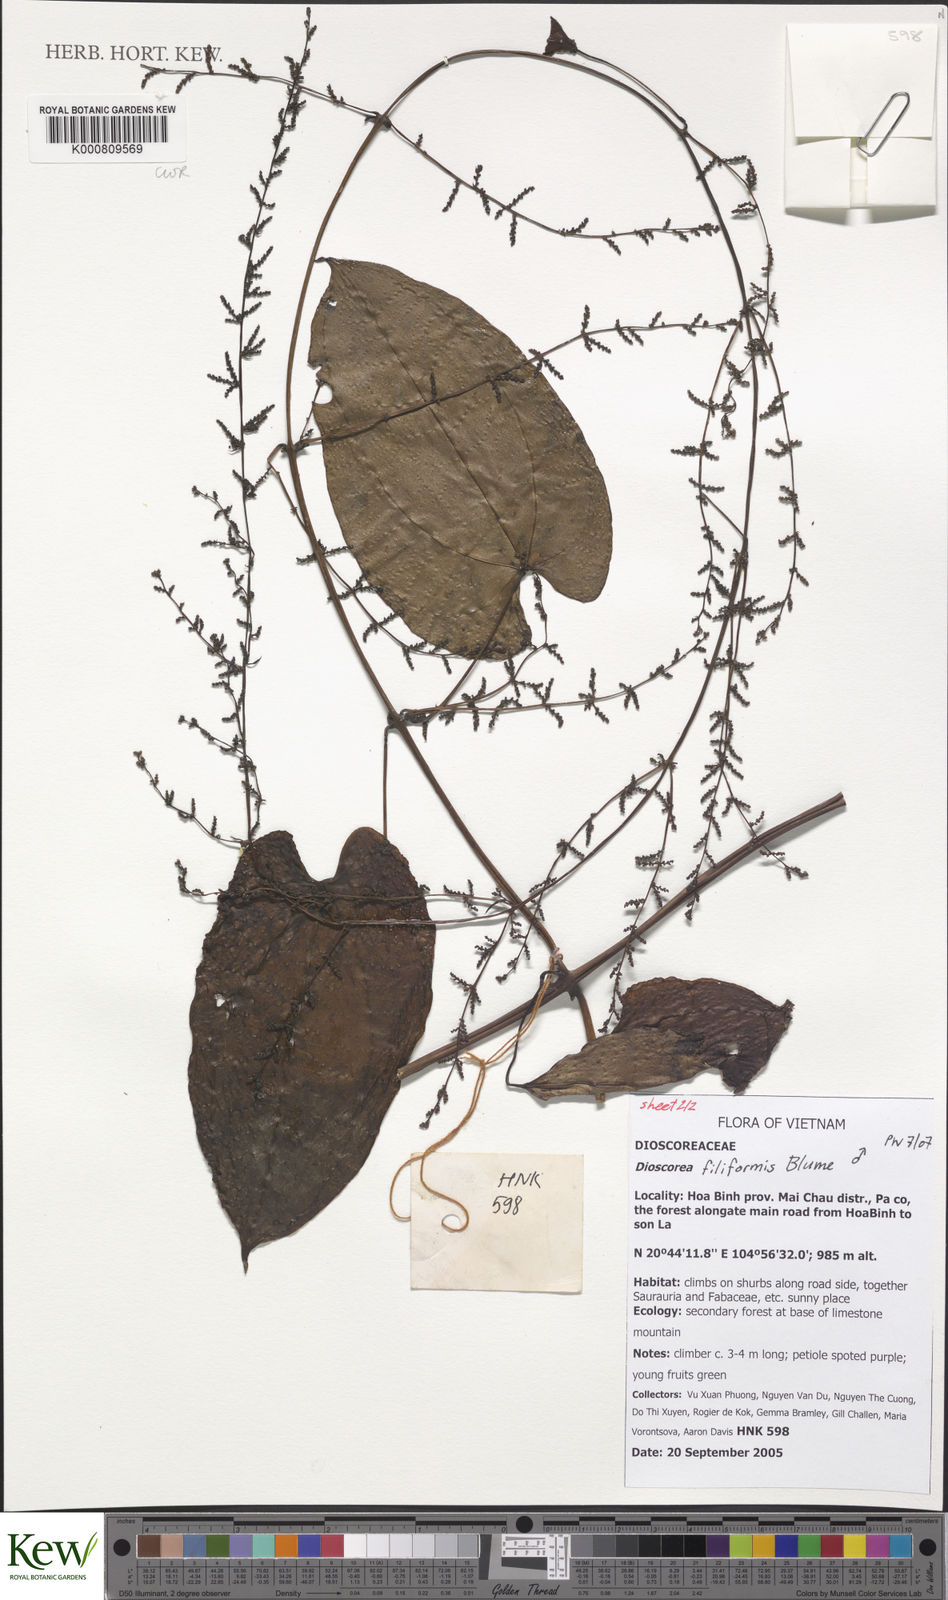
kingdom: Plantae
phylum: Tracheophyta
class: Liliopsida
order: Dioscoreales
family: Dioscoreaceae
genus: Dioscorea
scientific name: Dioscorea filiformis
